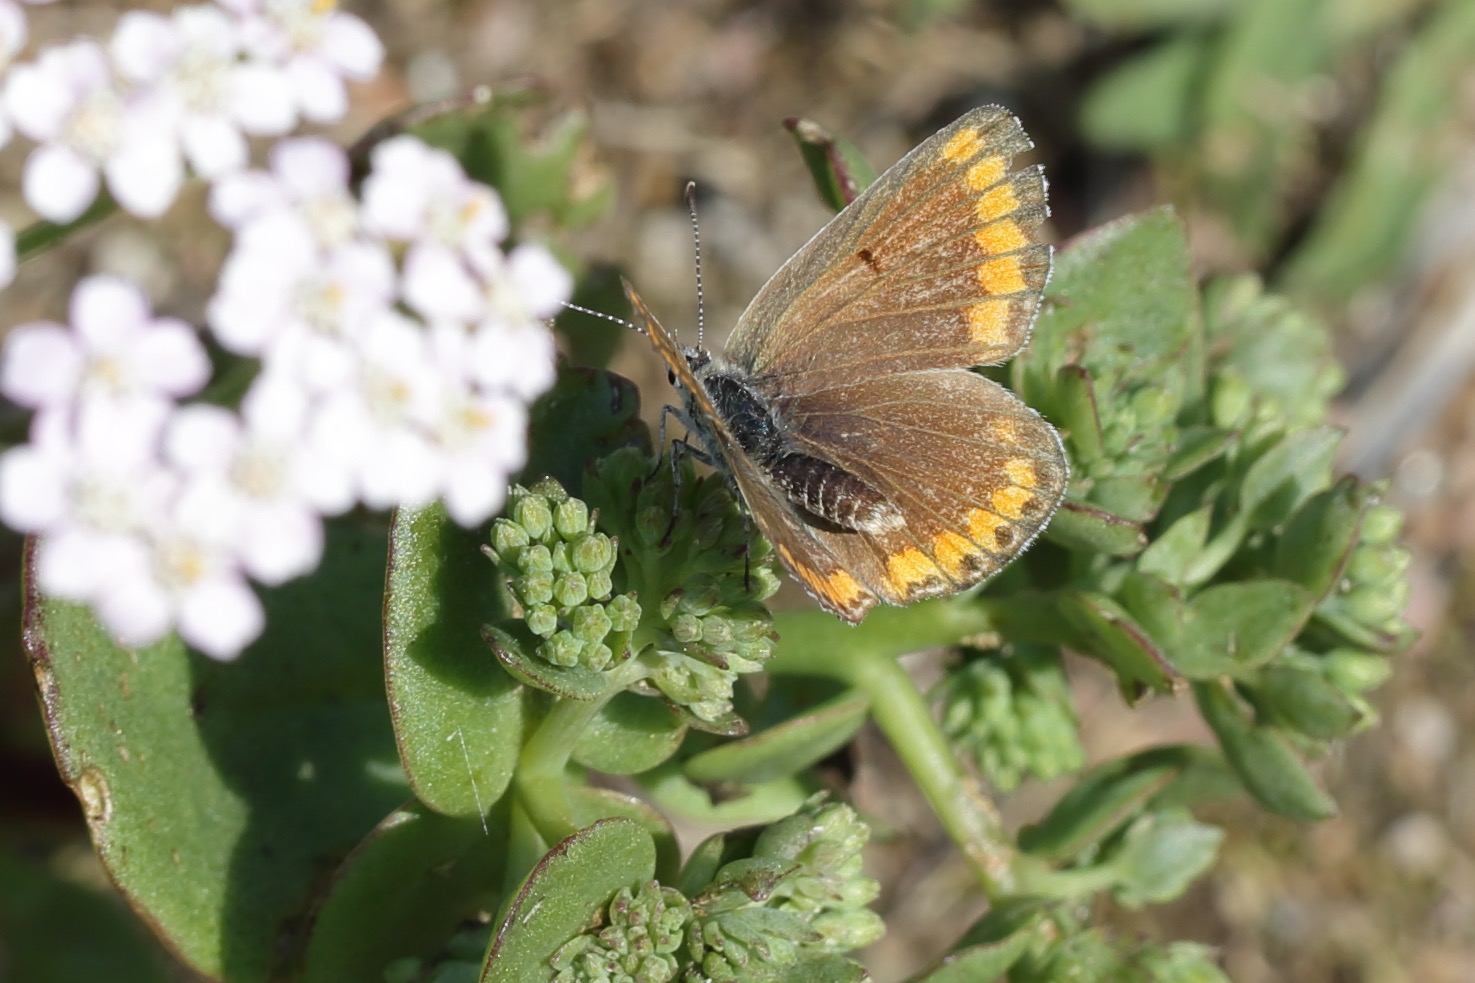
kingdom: Animalia
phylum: Arthropoda
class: Insecta
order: Lepidoptera
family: Lycaenidae
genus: Aricia
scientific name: Aricia agestis
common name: Rødplettet blåfugl
